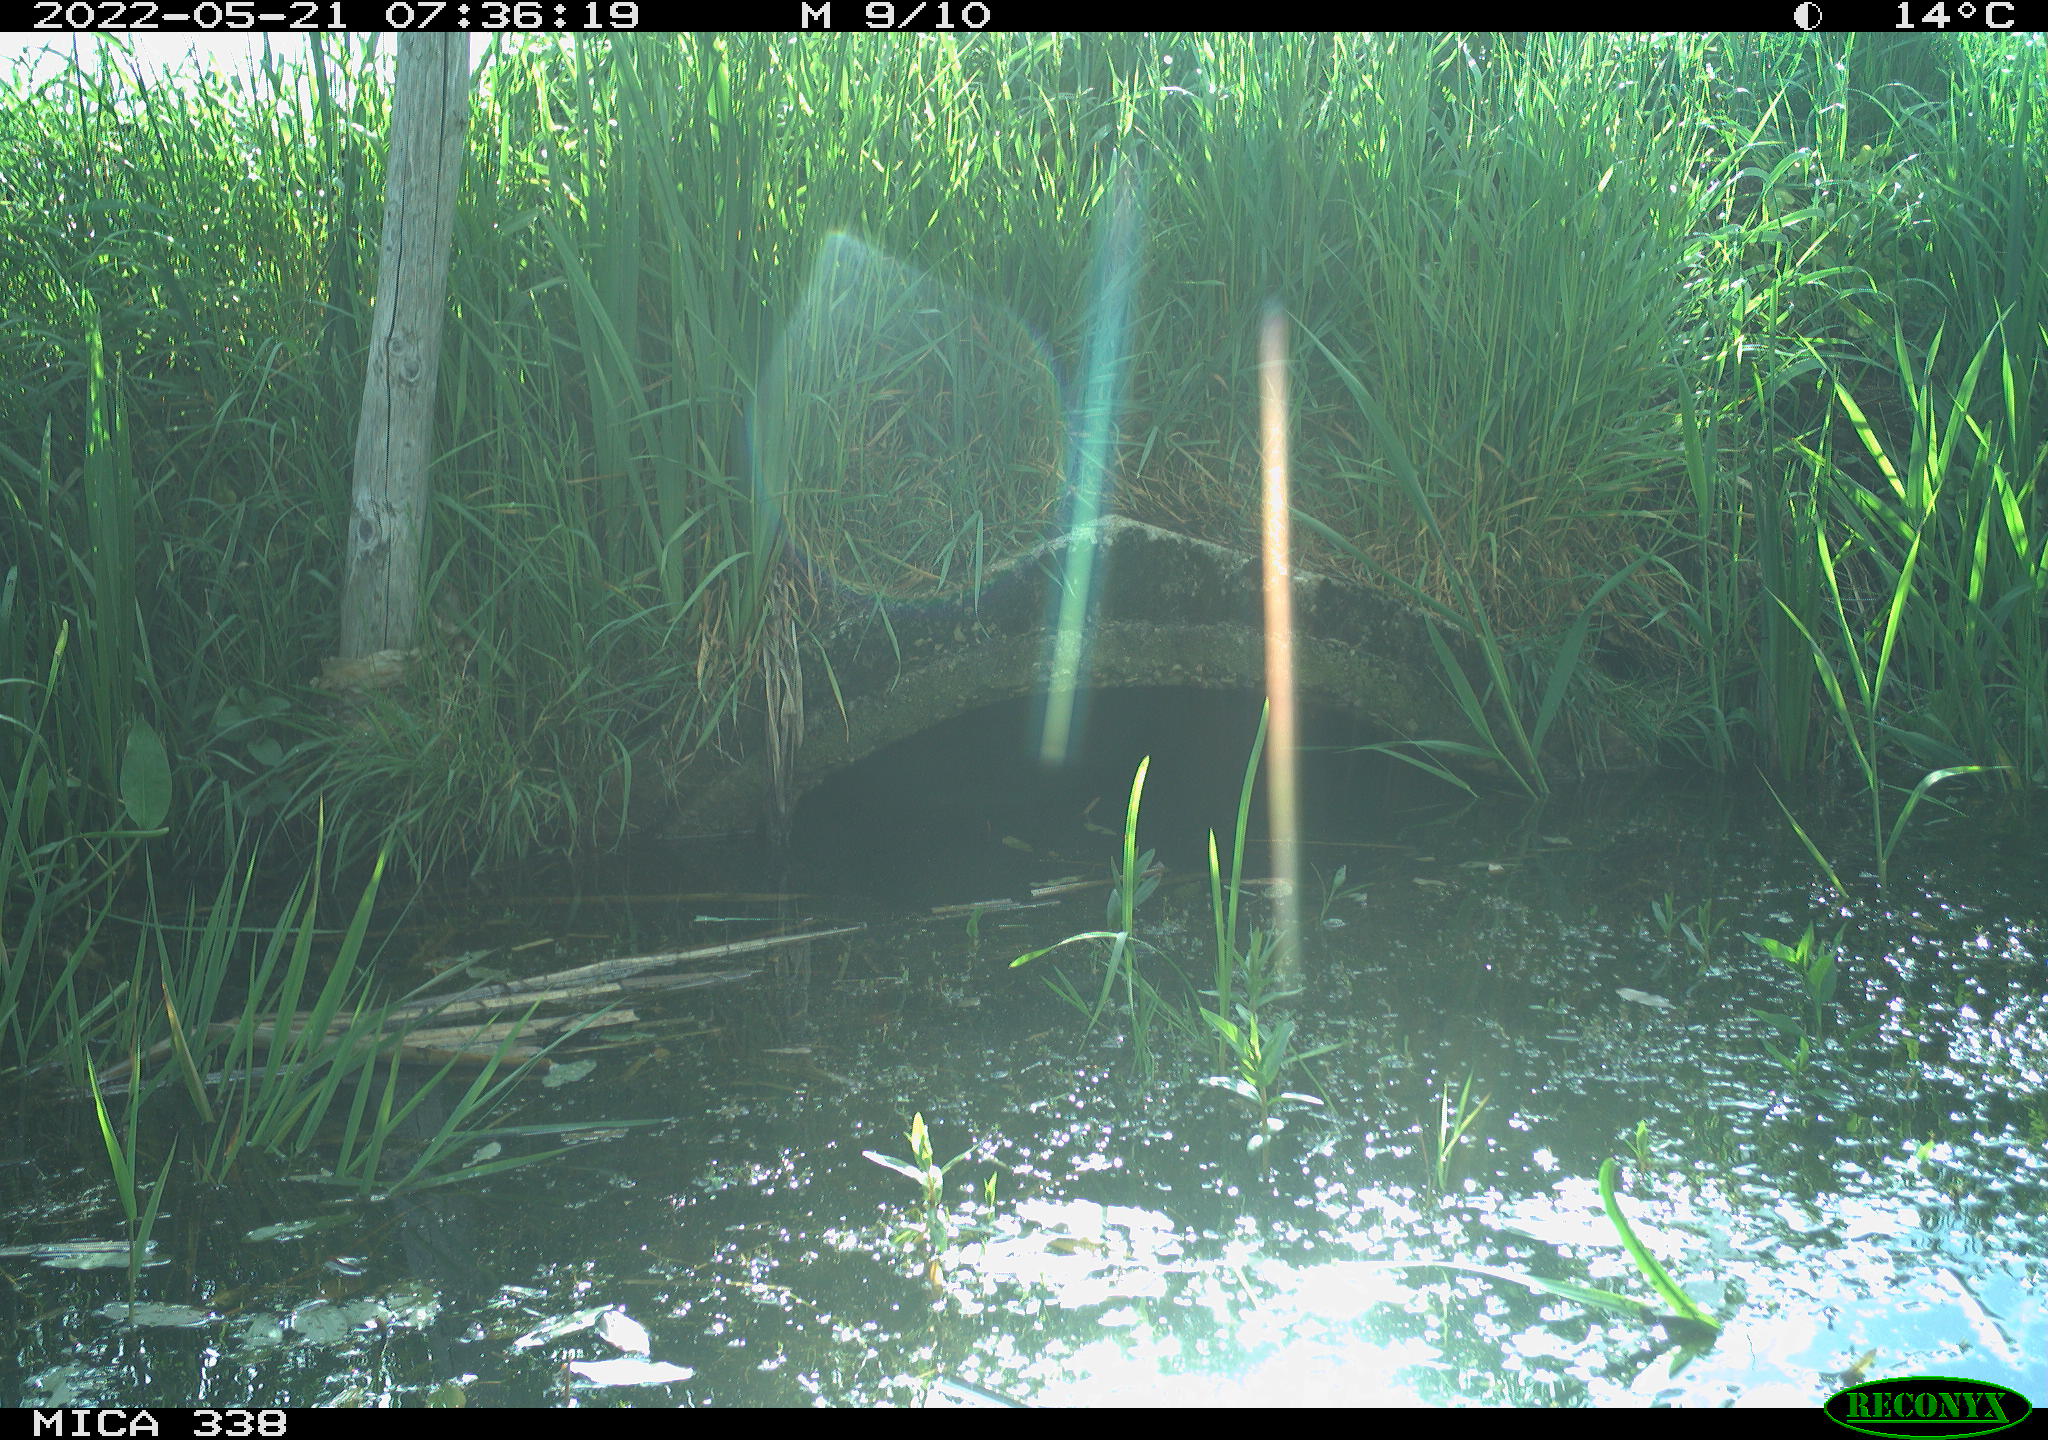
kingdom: Animalia
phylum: Chordata
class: Aves
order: Anseriformes
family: Anatidae
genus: Anas
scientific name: Anas platyrhynchos
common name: Mallard
